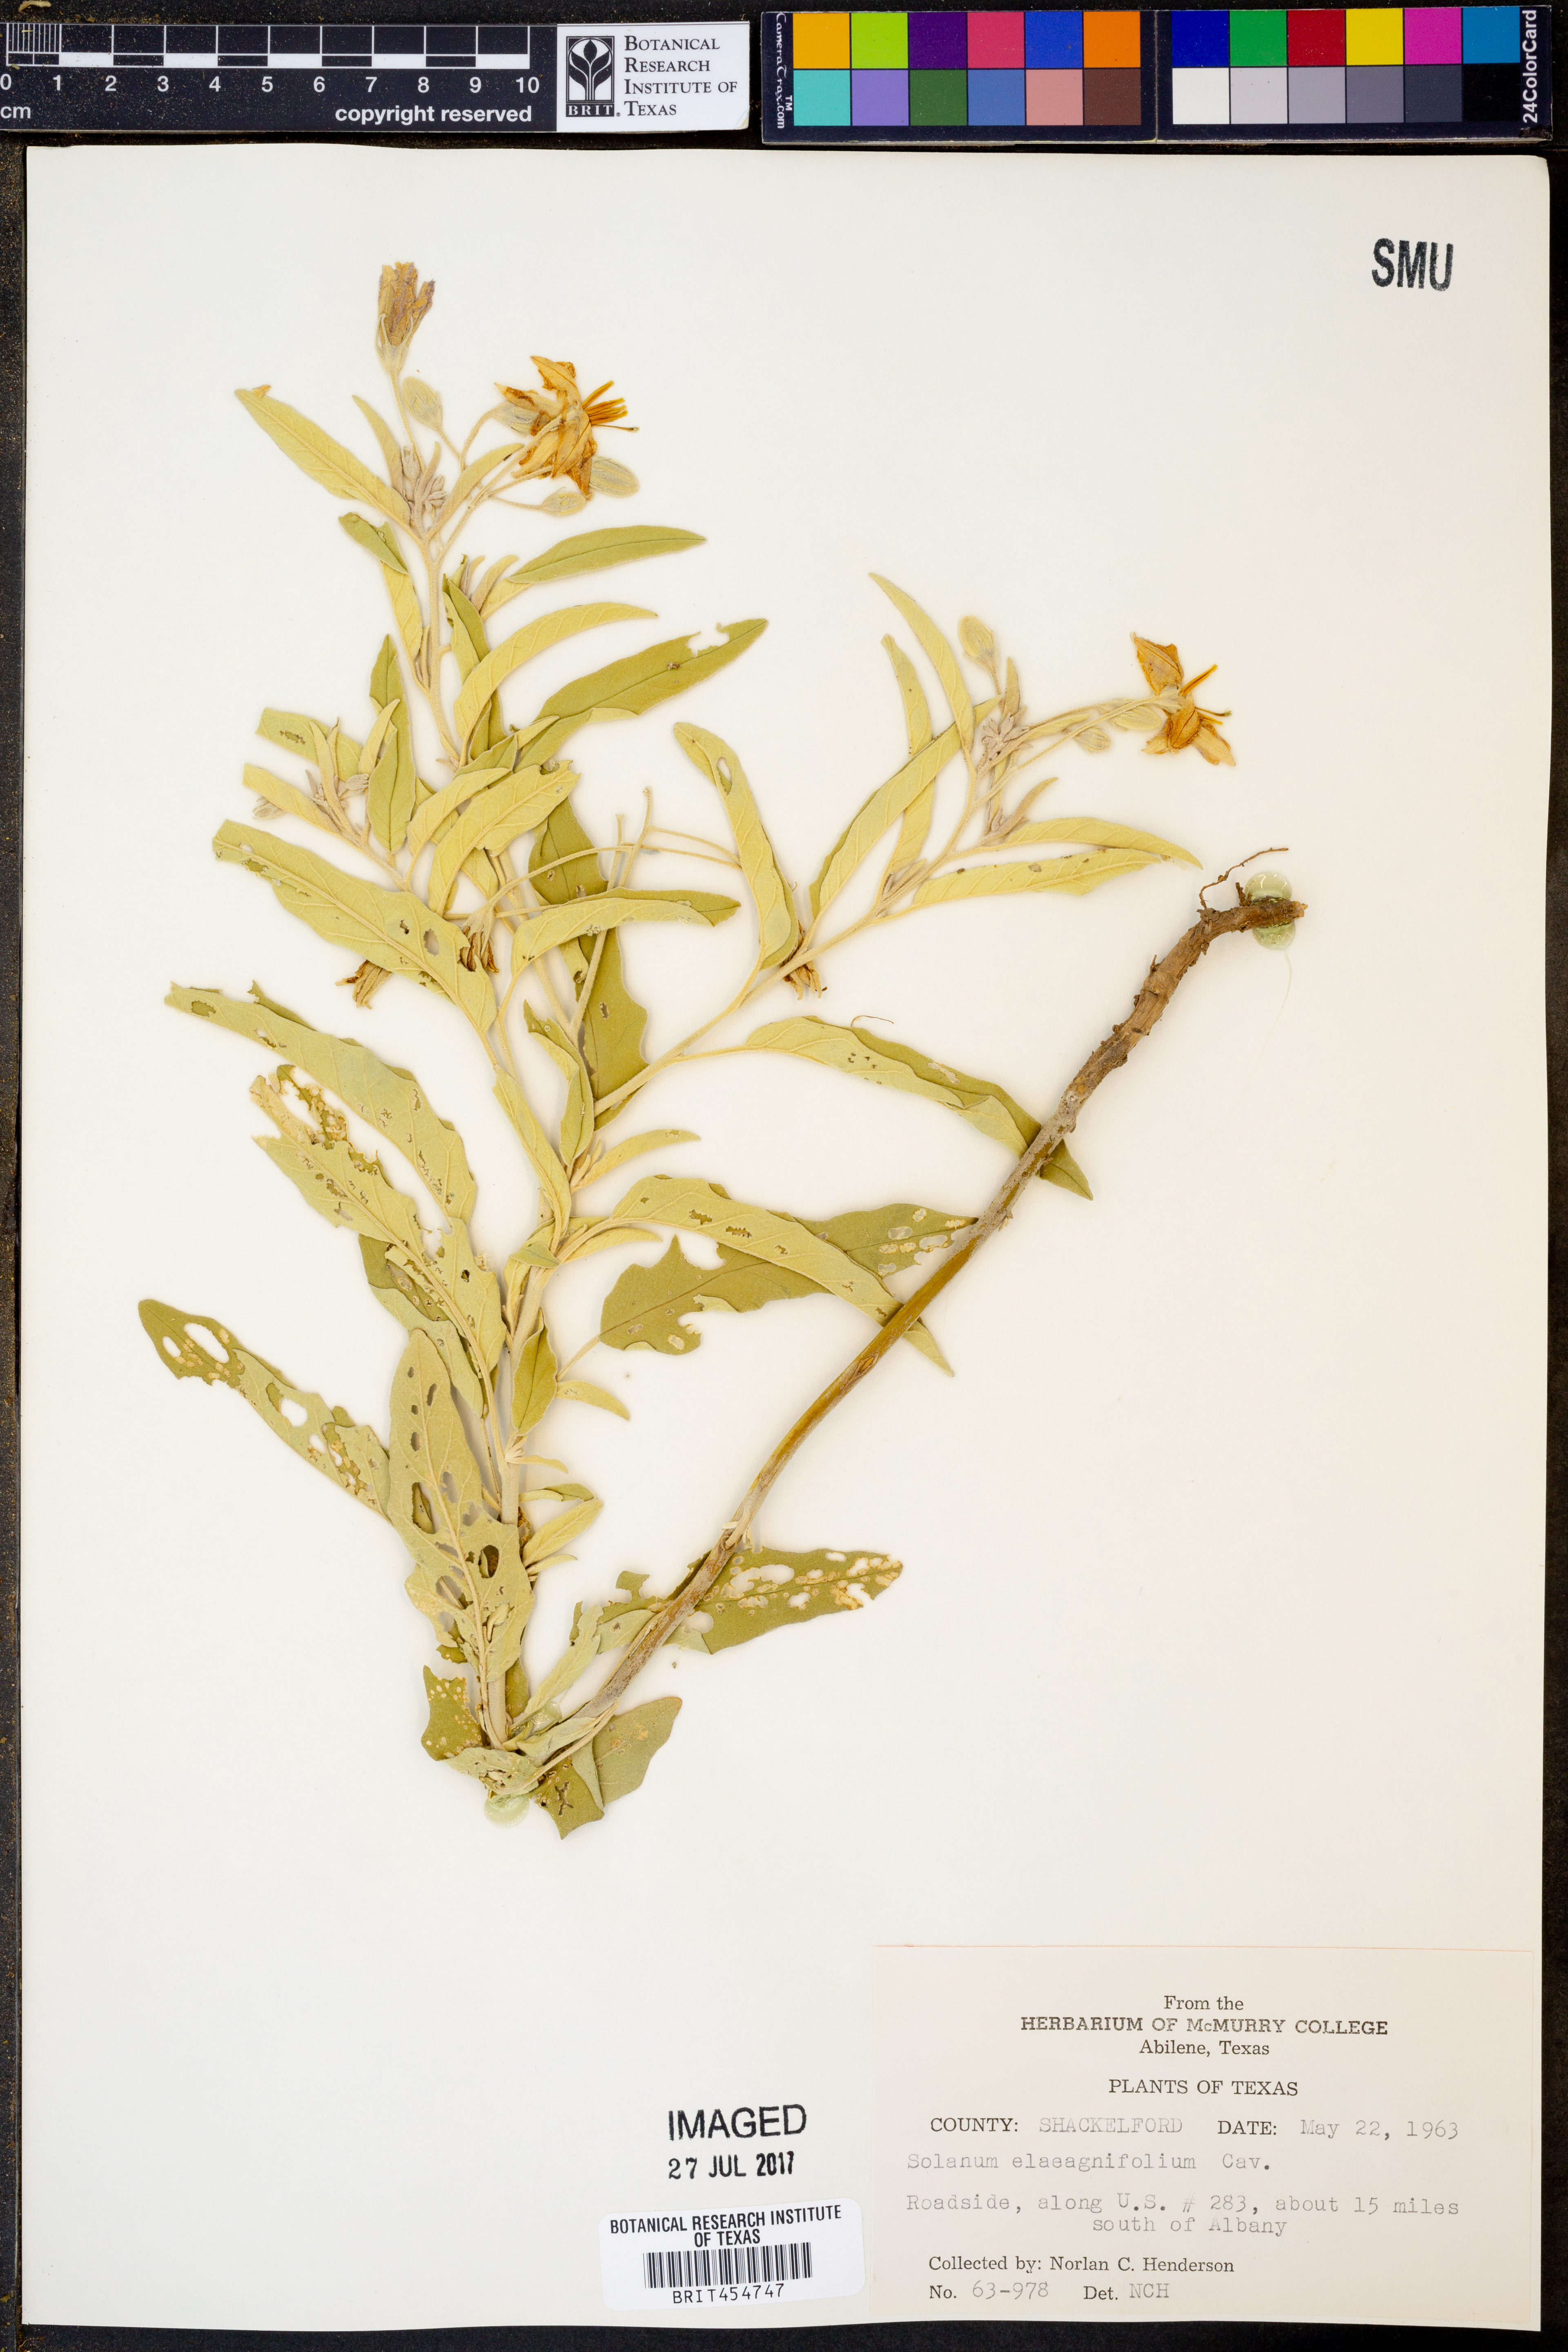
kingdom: Plantae
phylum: Tracheophyta
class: Magnoliopsida
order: Solanales
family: Solanaceae
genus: Solanum
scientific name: Solanum elaeagnifolium
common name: Silverleaf nightshade
